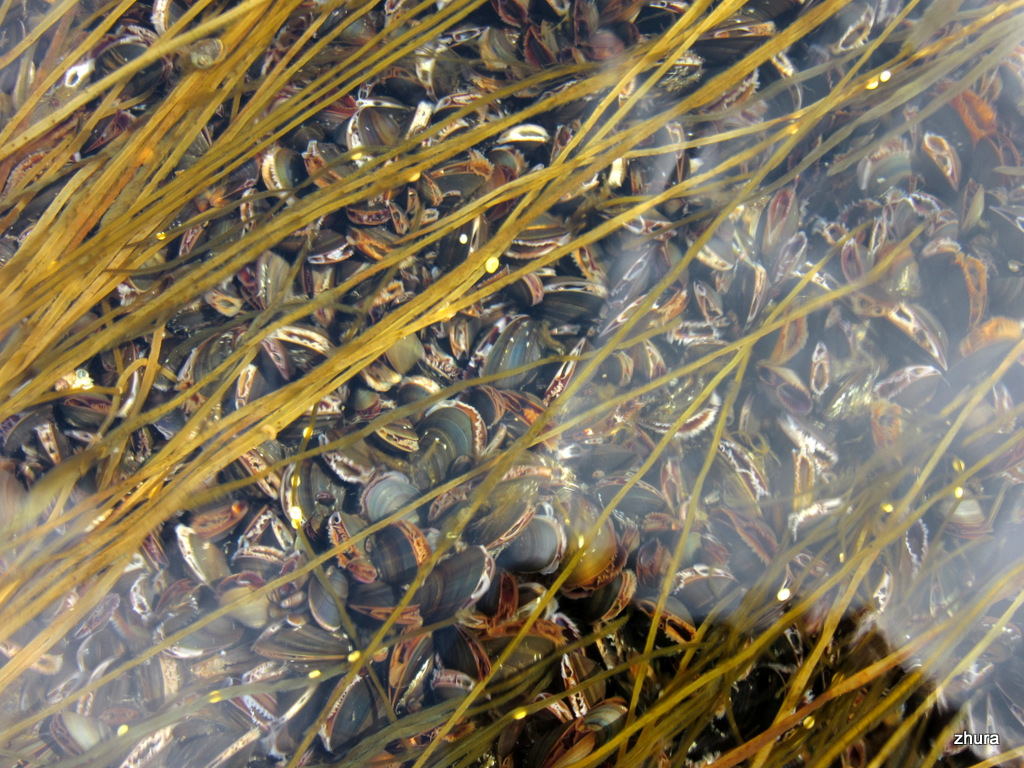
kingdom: Animalia
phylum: Mollusca
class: Bivalvia
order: Mytilida
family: Mytilidae
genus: Mytilus
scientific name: Mytilus edulis
